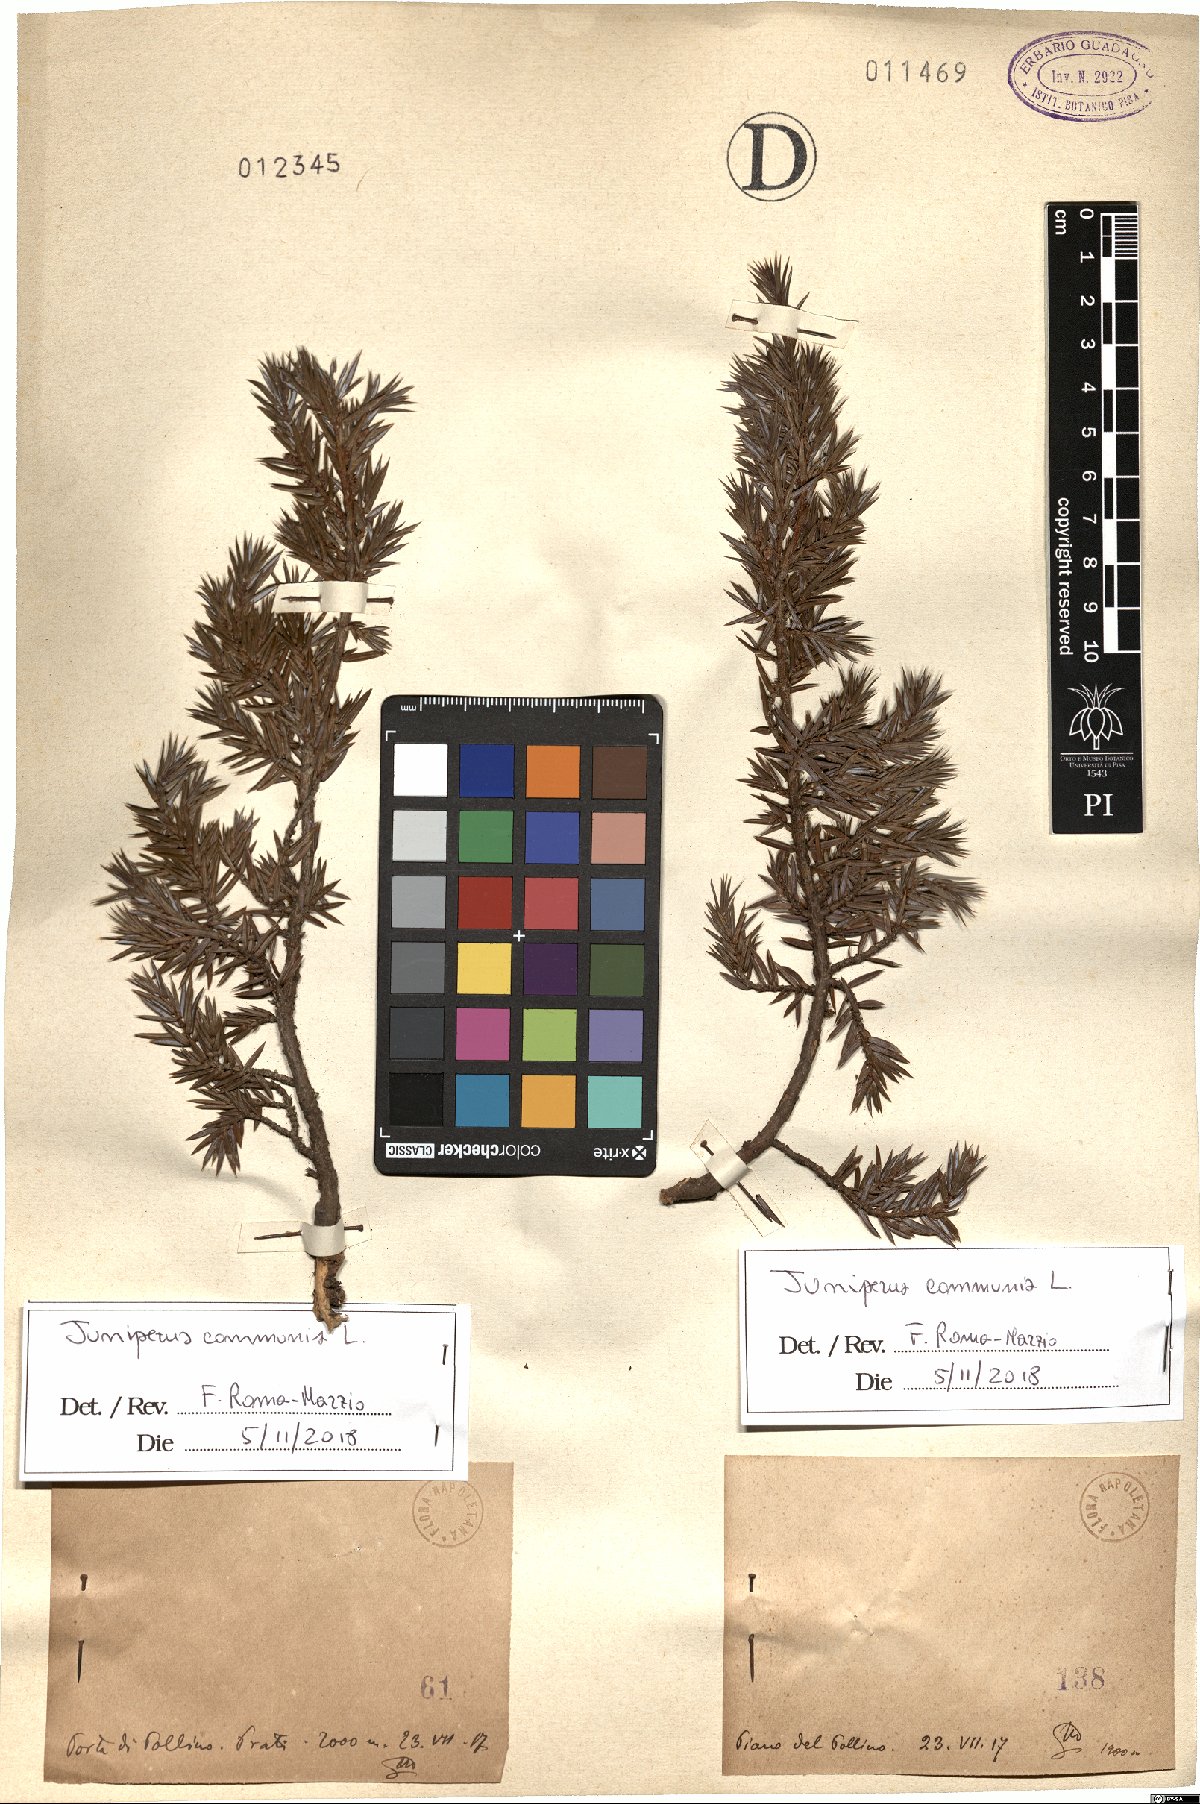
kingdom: Plantae
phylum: Tracheophyta
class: Pinopsida
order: Pinales
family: Cupressaceae
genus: Juniperus
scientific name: Juniperus communis
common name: Common juniper
